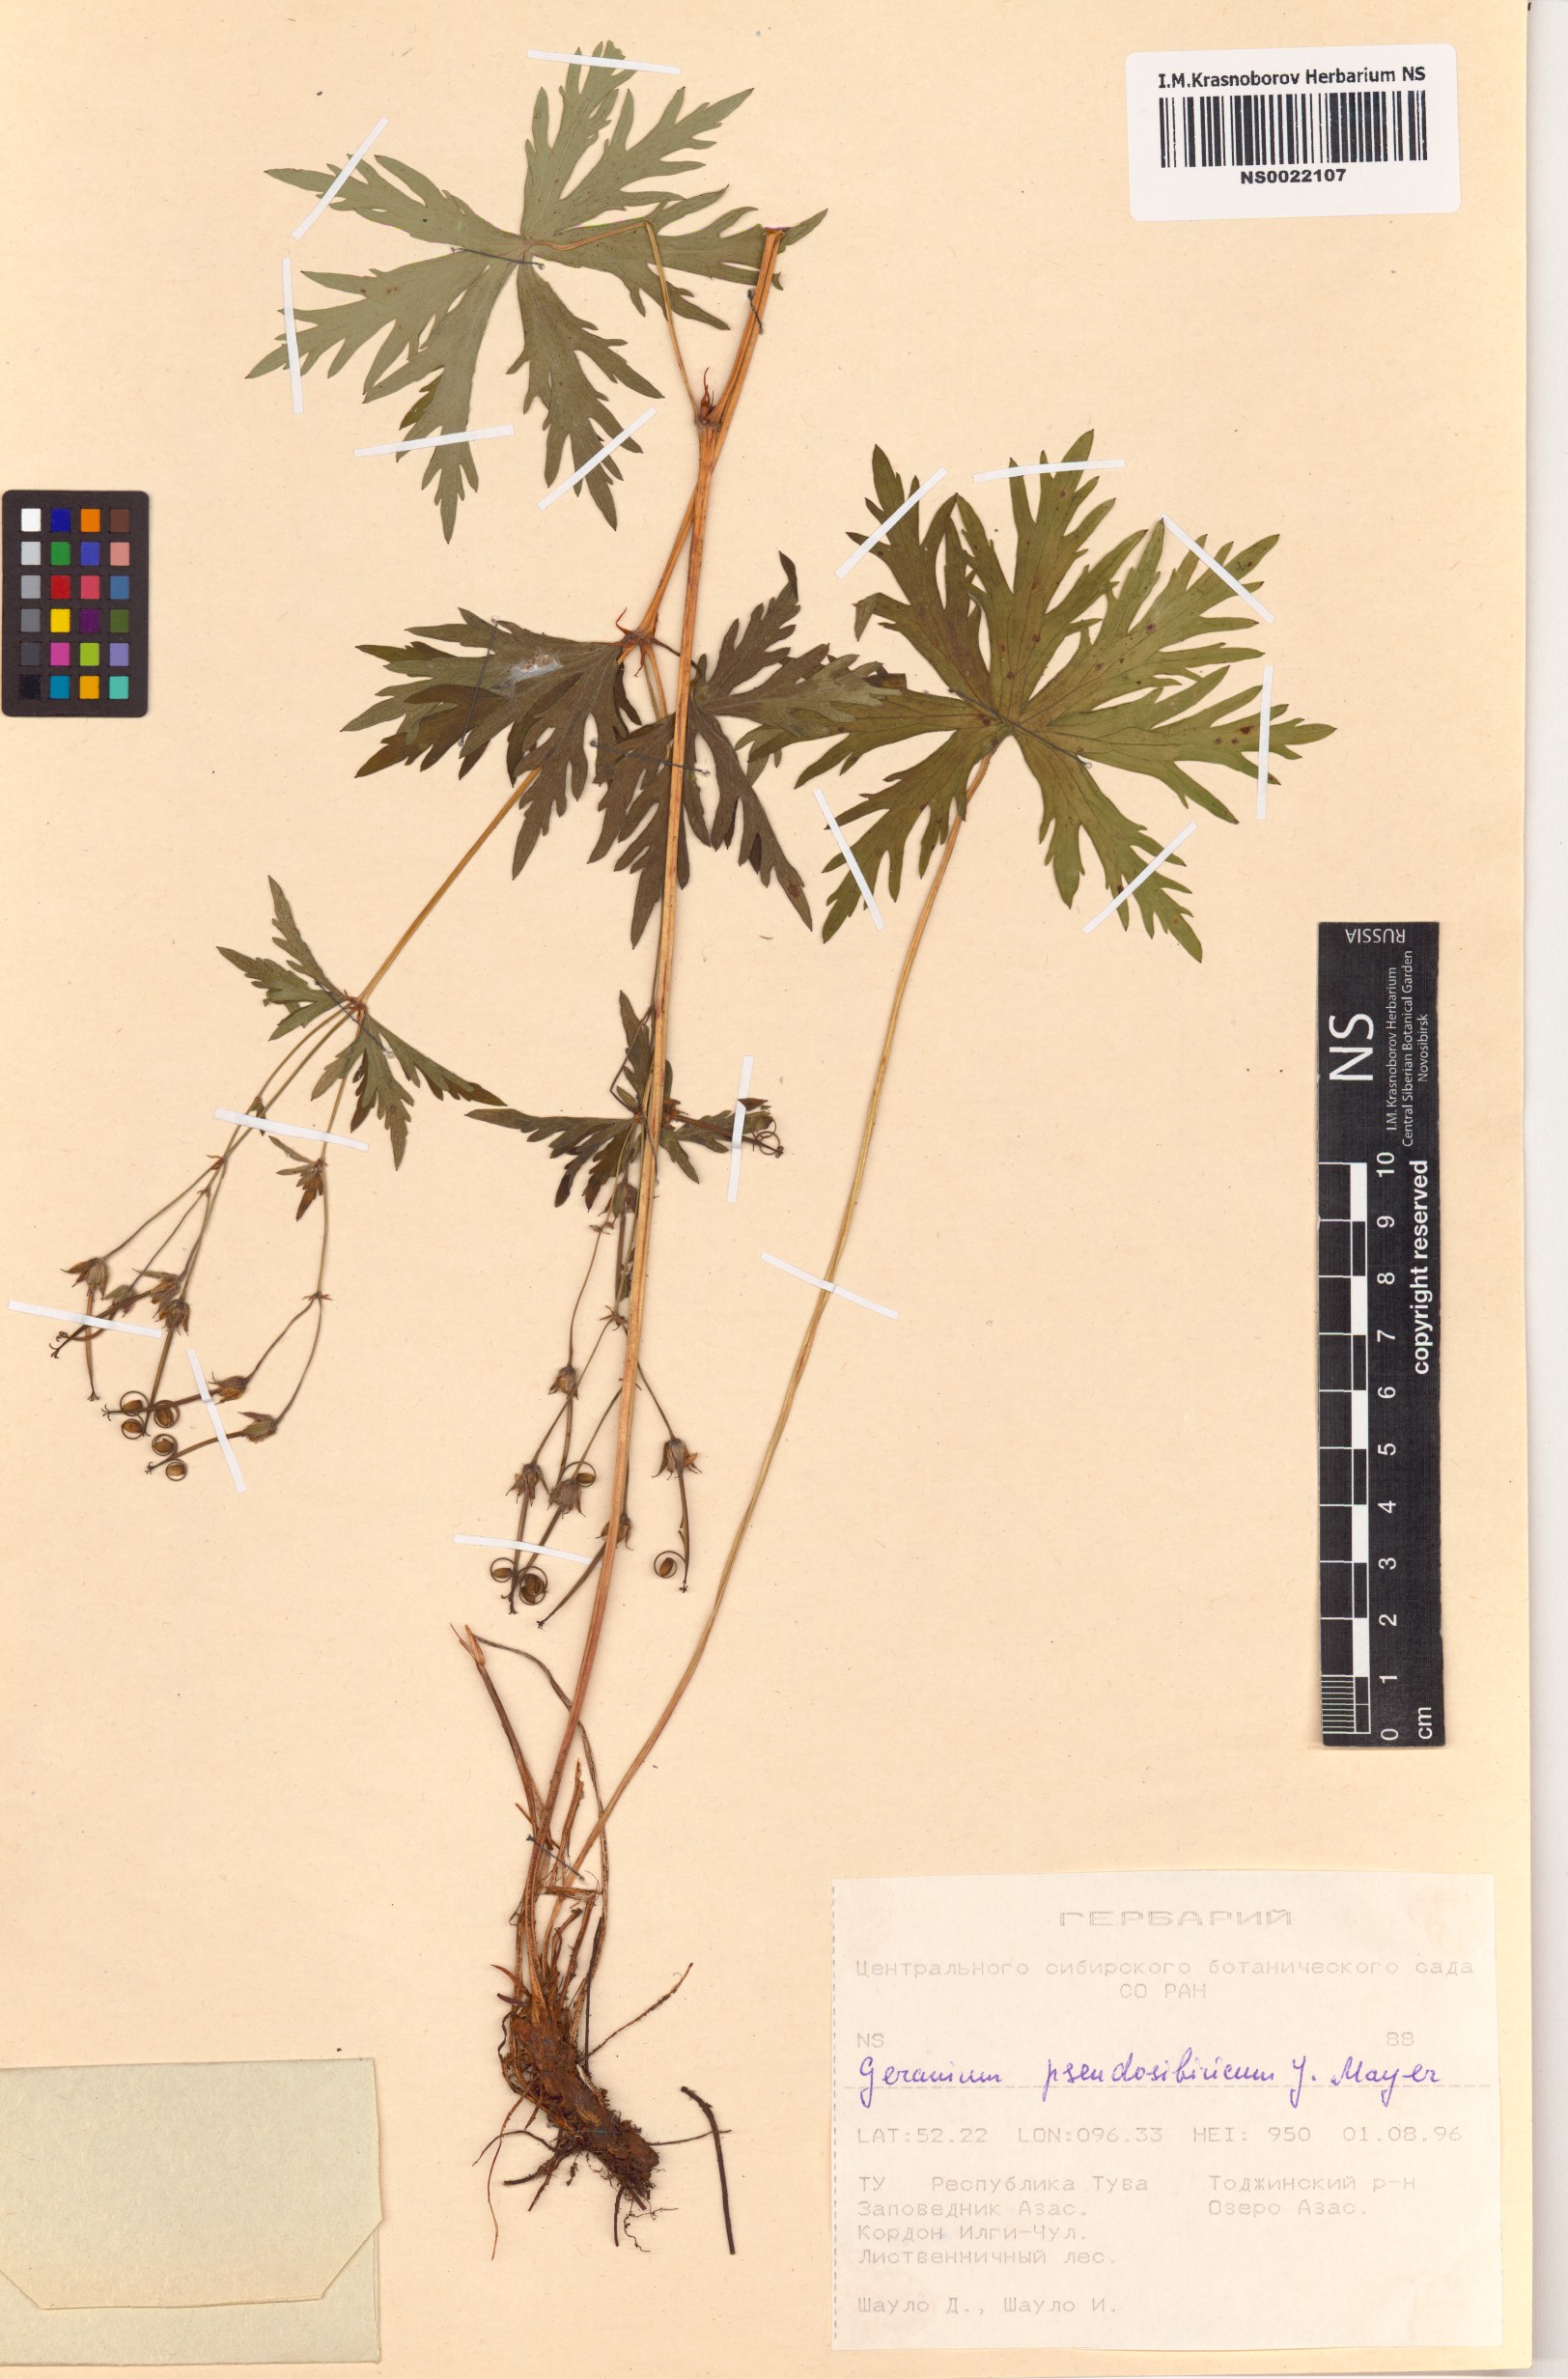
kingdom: Plantae
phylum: Tracheophyta
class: Magnoliopsida
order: Geraniales
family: Geraniaceae
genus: Geranium
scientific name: Geranium pseudosibiricum
